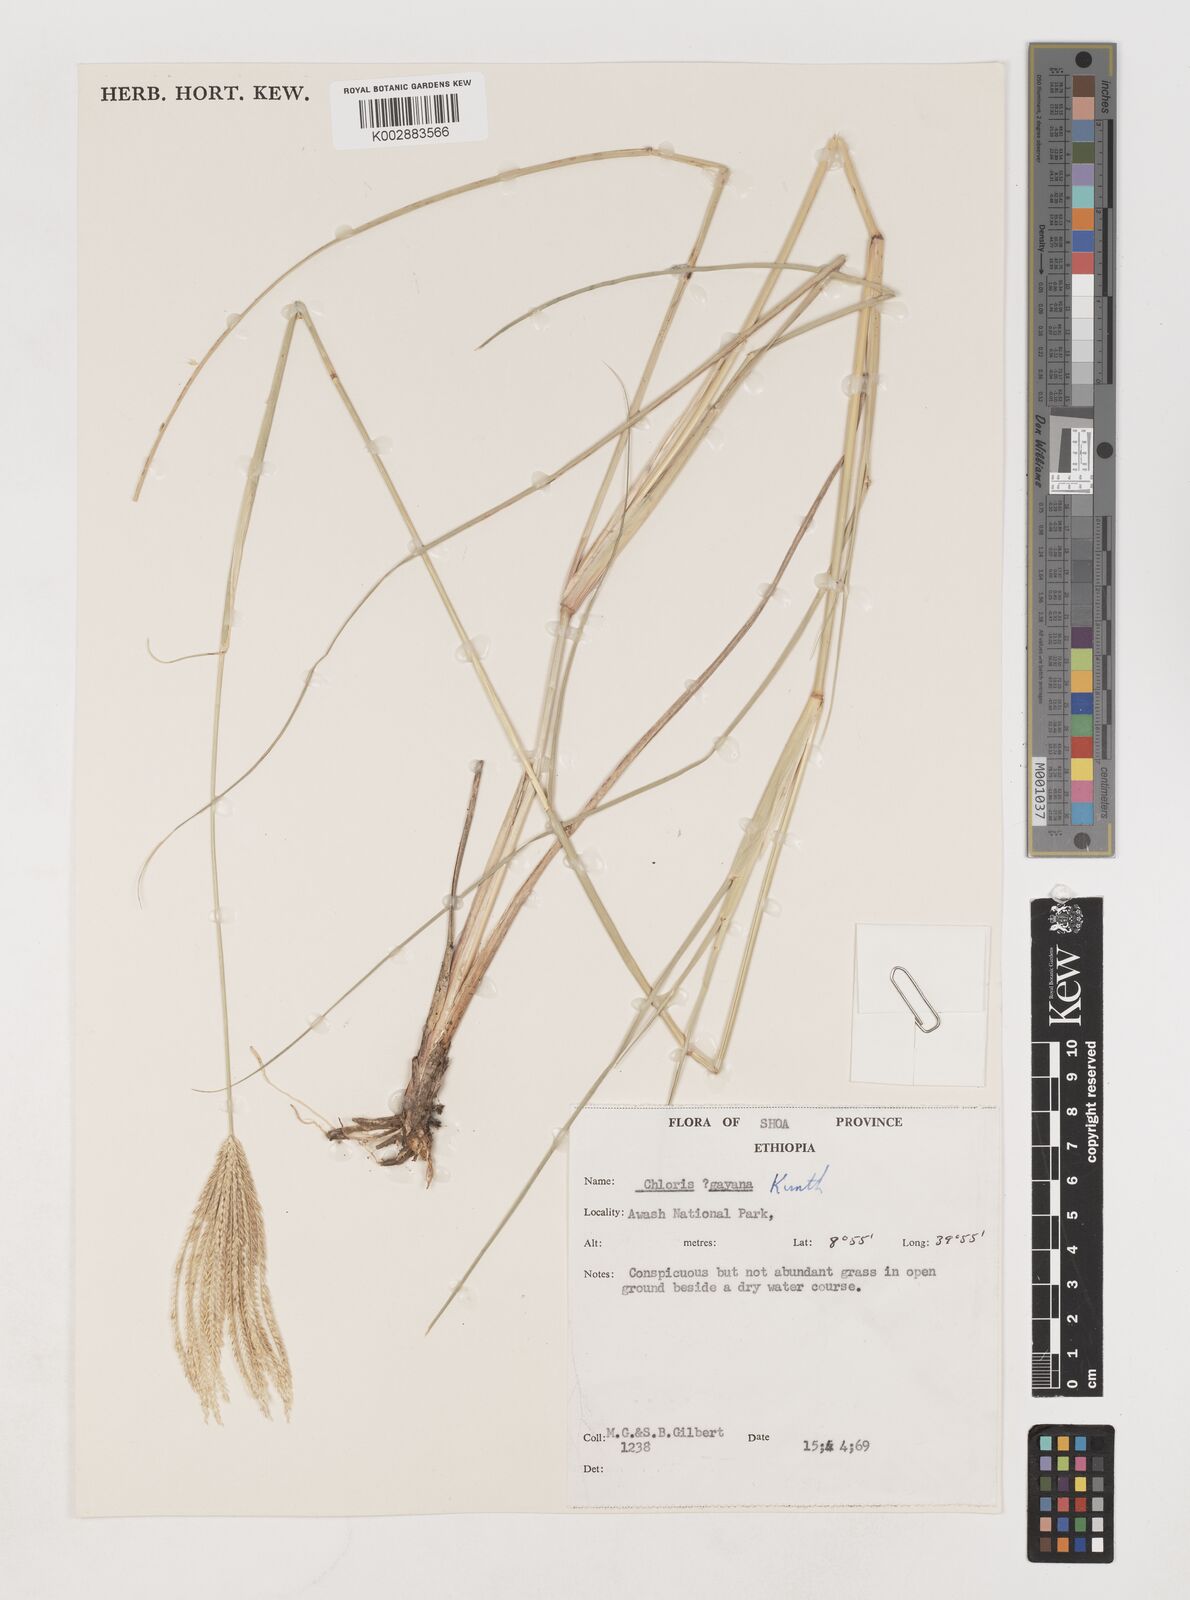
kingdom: Plantae
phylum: Tracheophyta
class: Liliopsida
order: Poales
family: Poaceae
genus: Chloris
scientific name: Chloris gayana
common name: Rhodes grass
